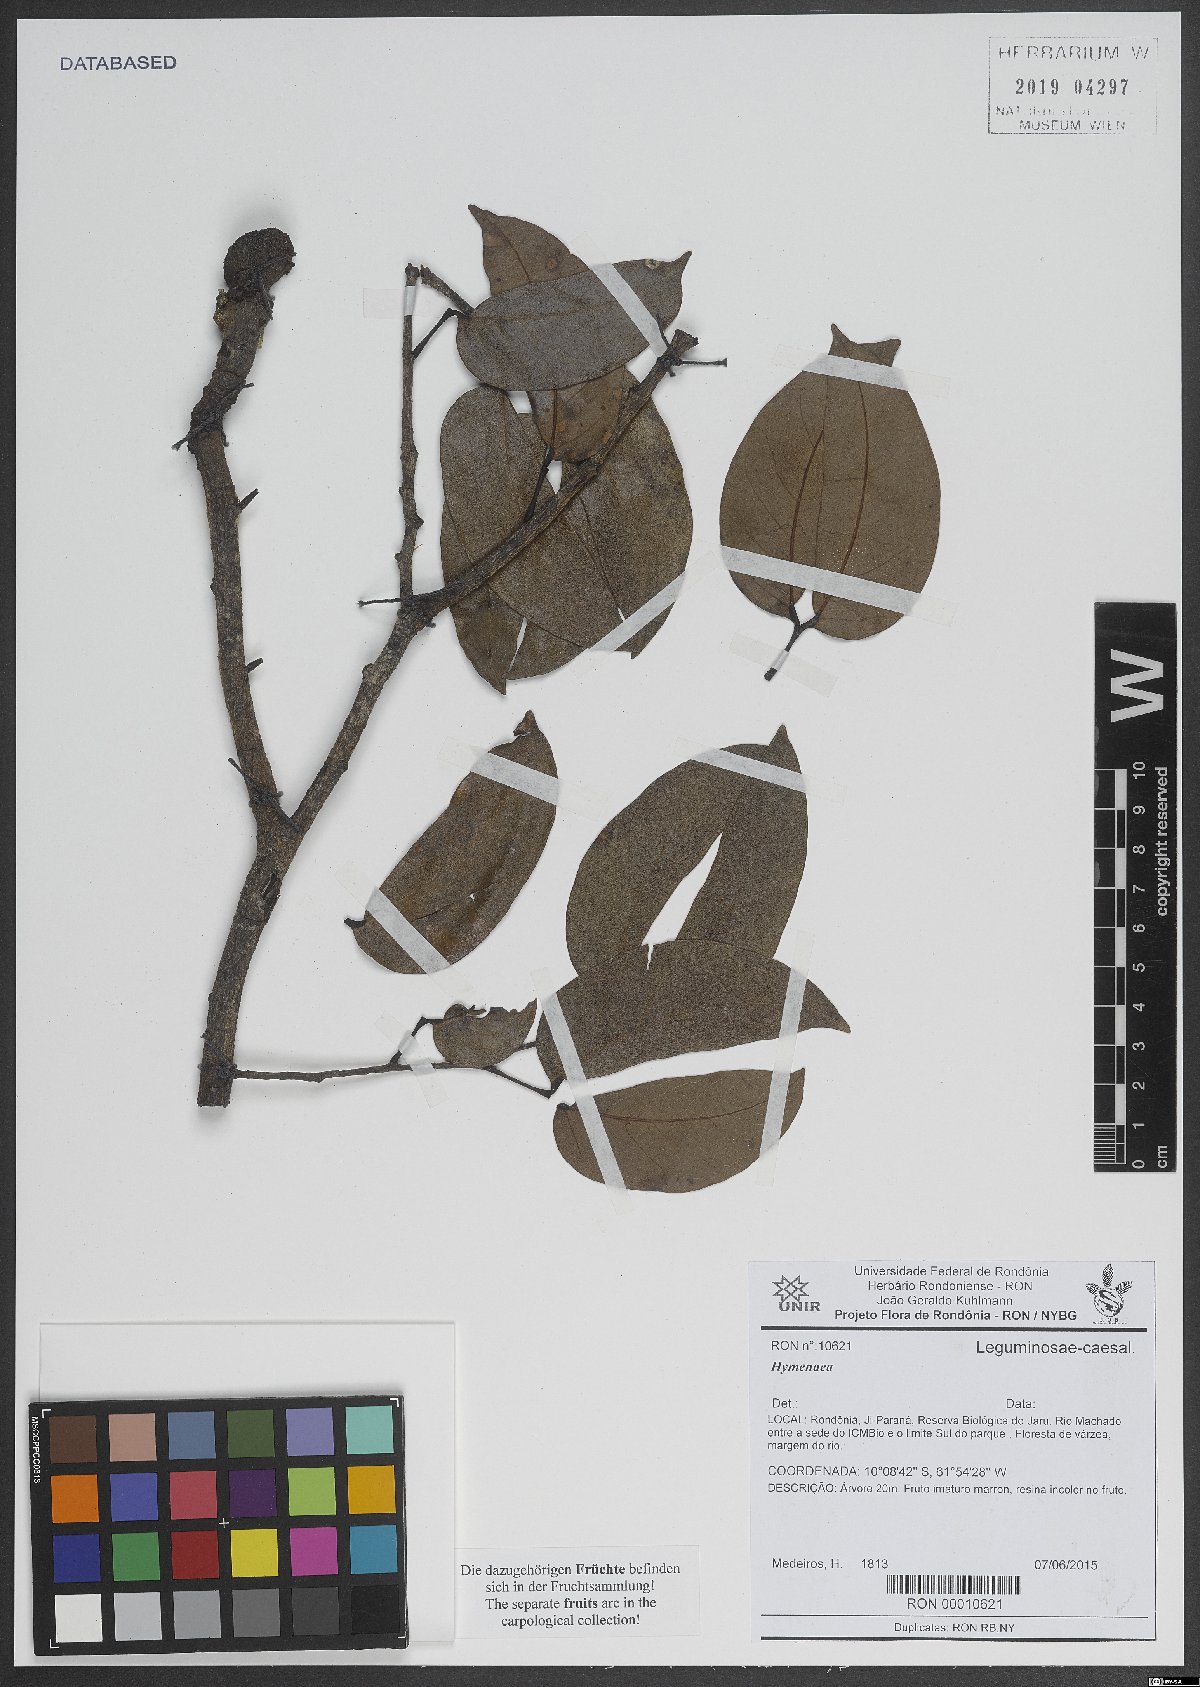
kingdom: Plantae
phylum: Tracheophyta
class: Magnoliopsida
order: Fabales
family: Fabaceae
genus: Hymenaea
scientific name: Hymenaea
